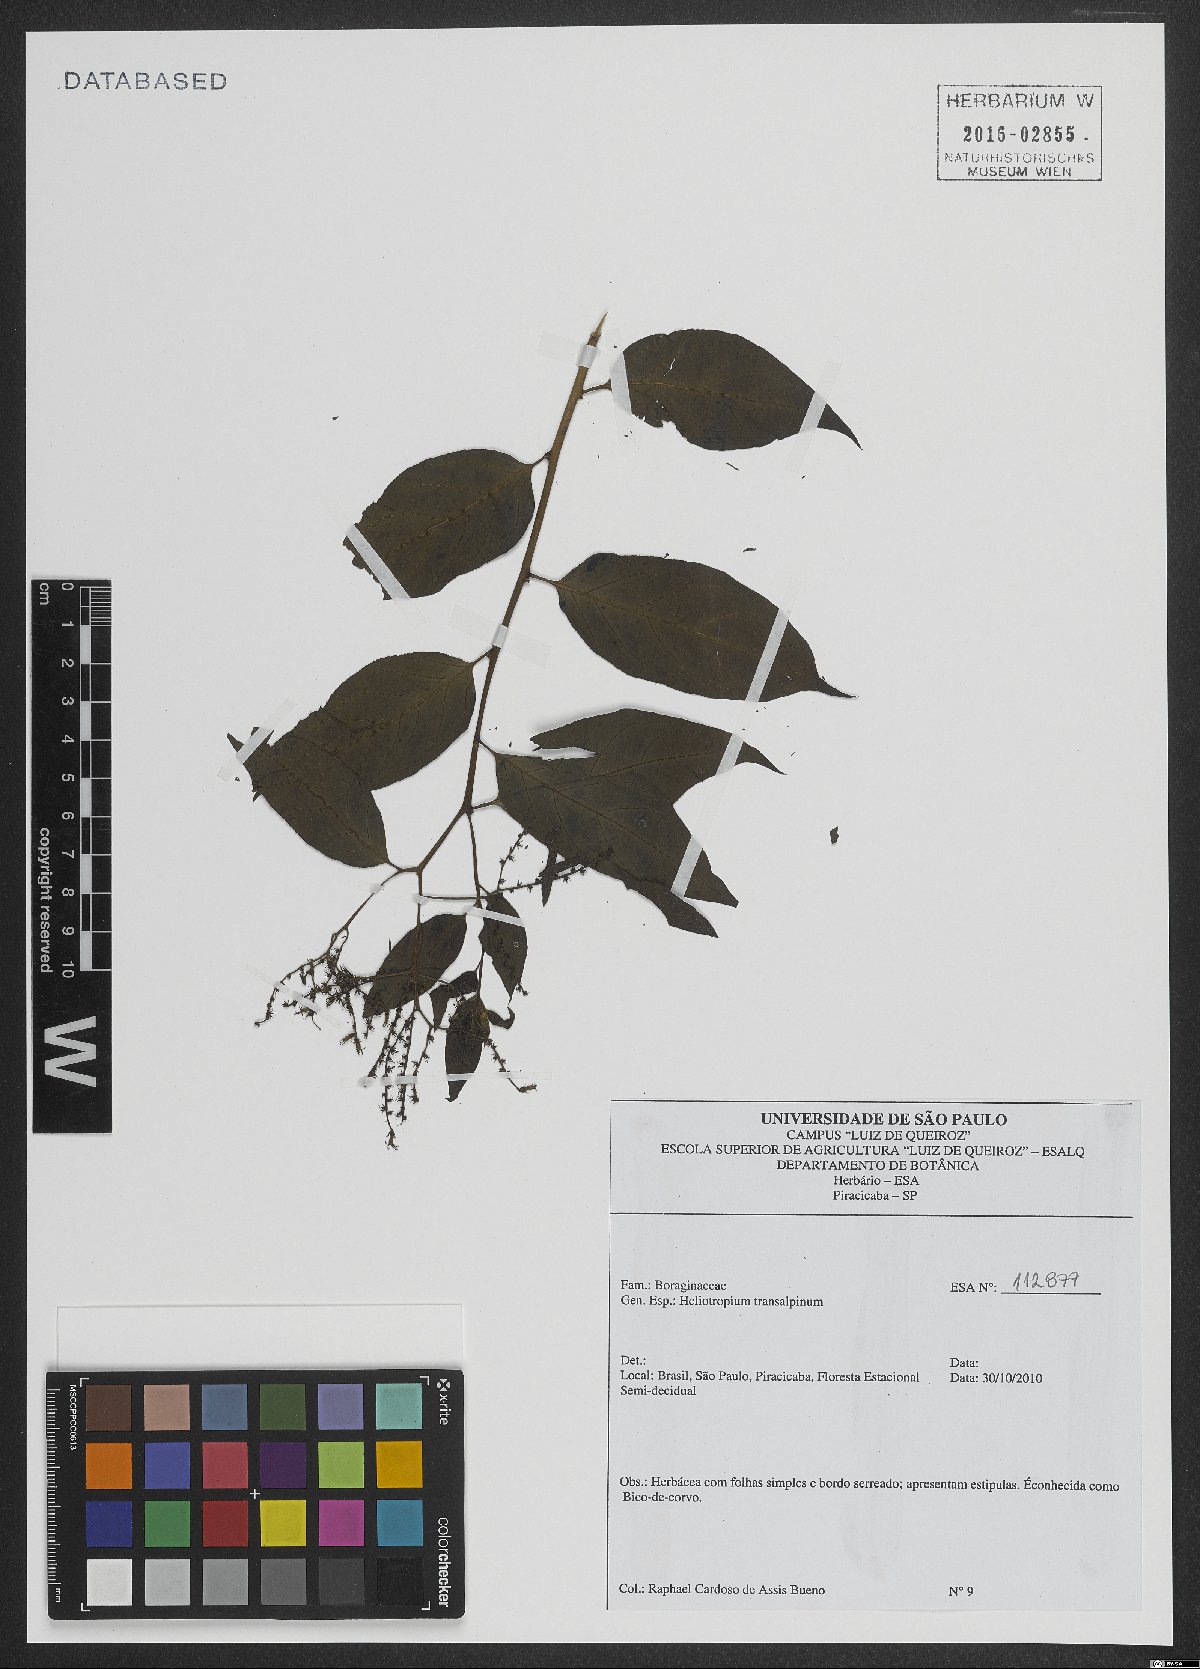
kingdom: Plantae
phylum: Tracheophyta
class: Magnoliopsida
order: Boraginales
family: Heliotropiaceae
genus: Heliotropium
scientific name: Heliotropium transalpinum
